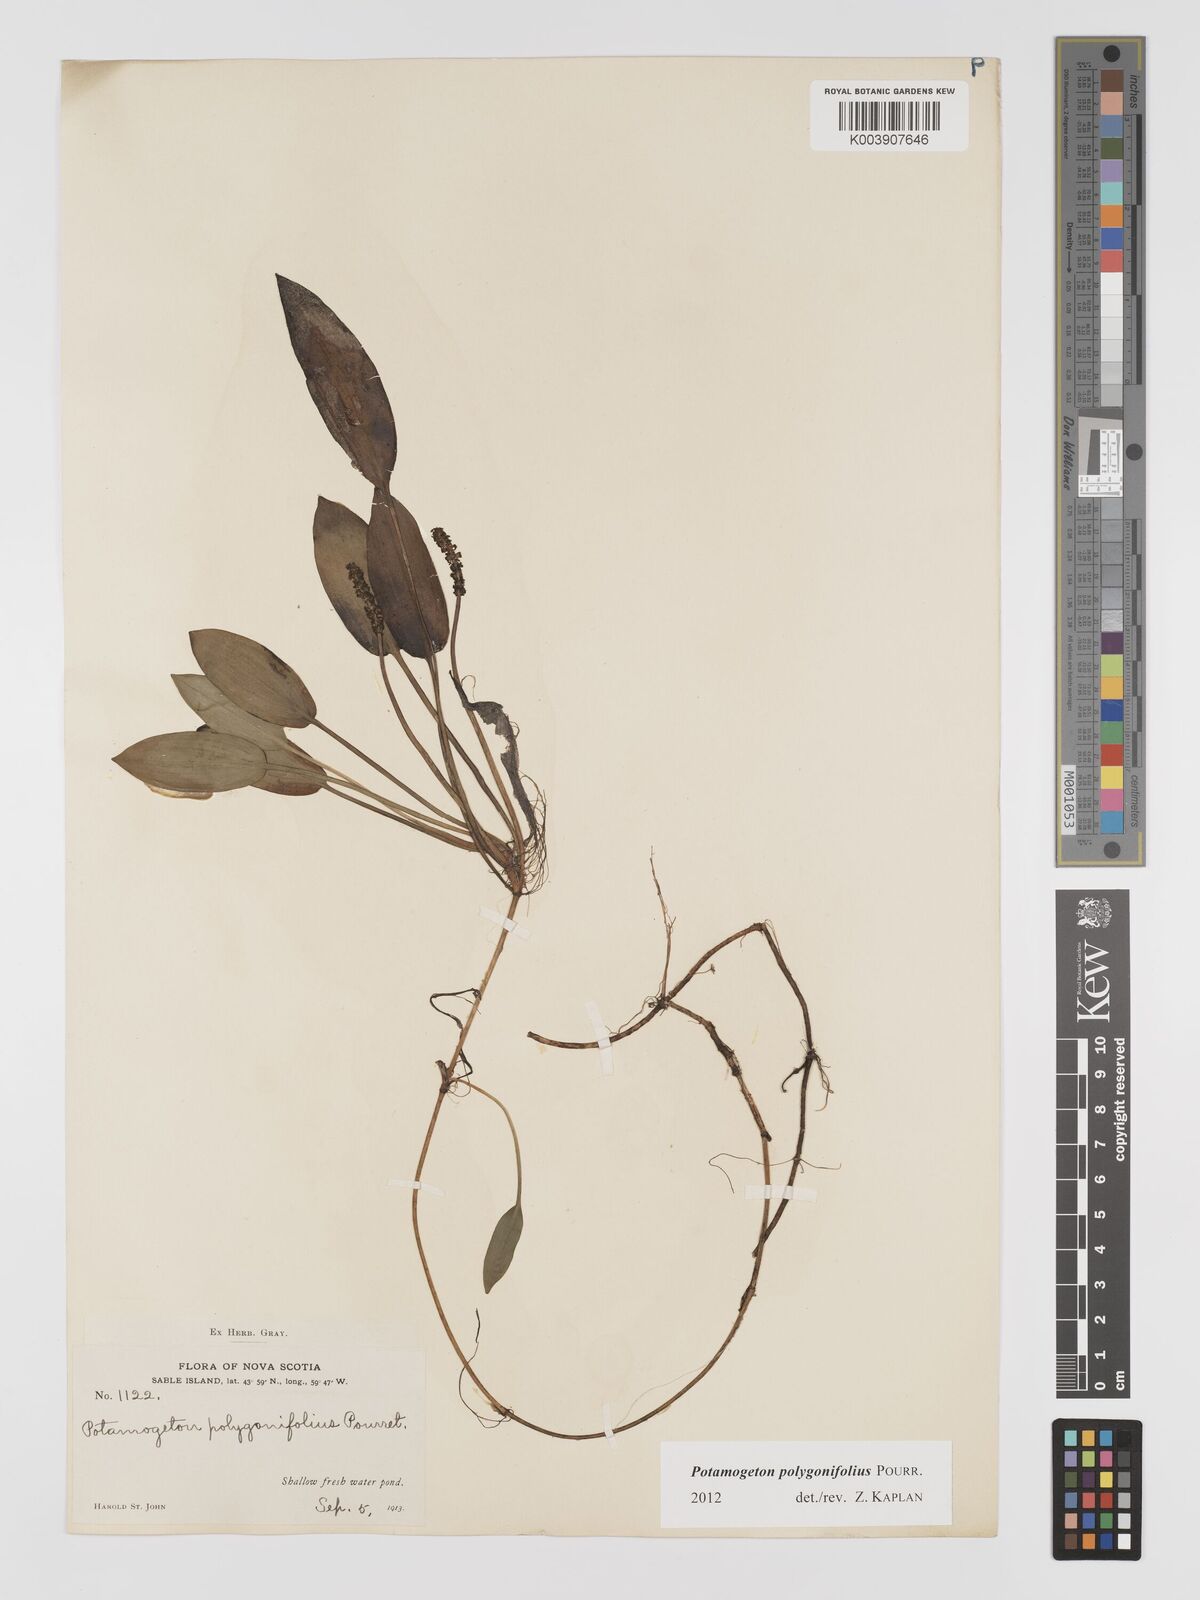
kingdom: Plantae
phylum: Tracheophyta
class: Liliopsida
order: Alismatales
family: Potamogetonaceae
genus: Potamogeton
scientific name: Potamogeton polygonifolius
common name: Bog pondweed
